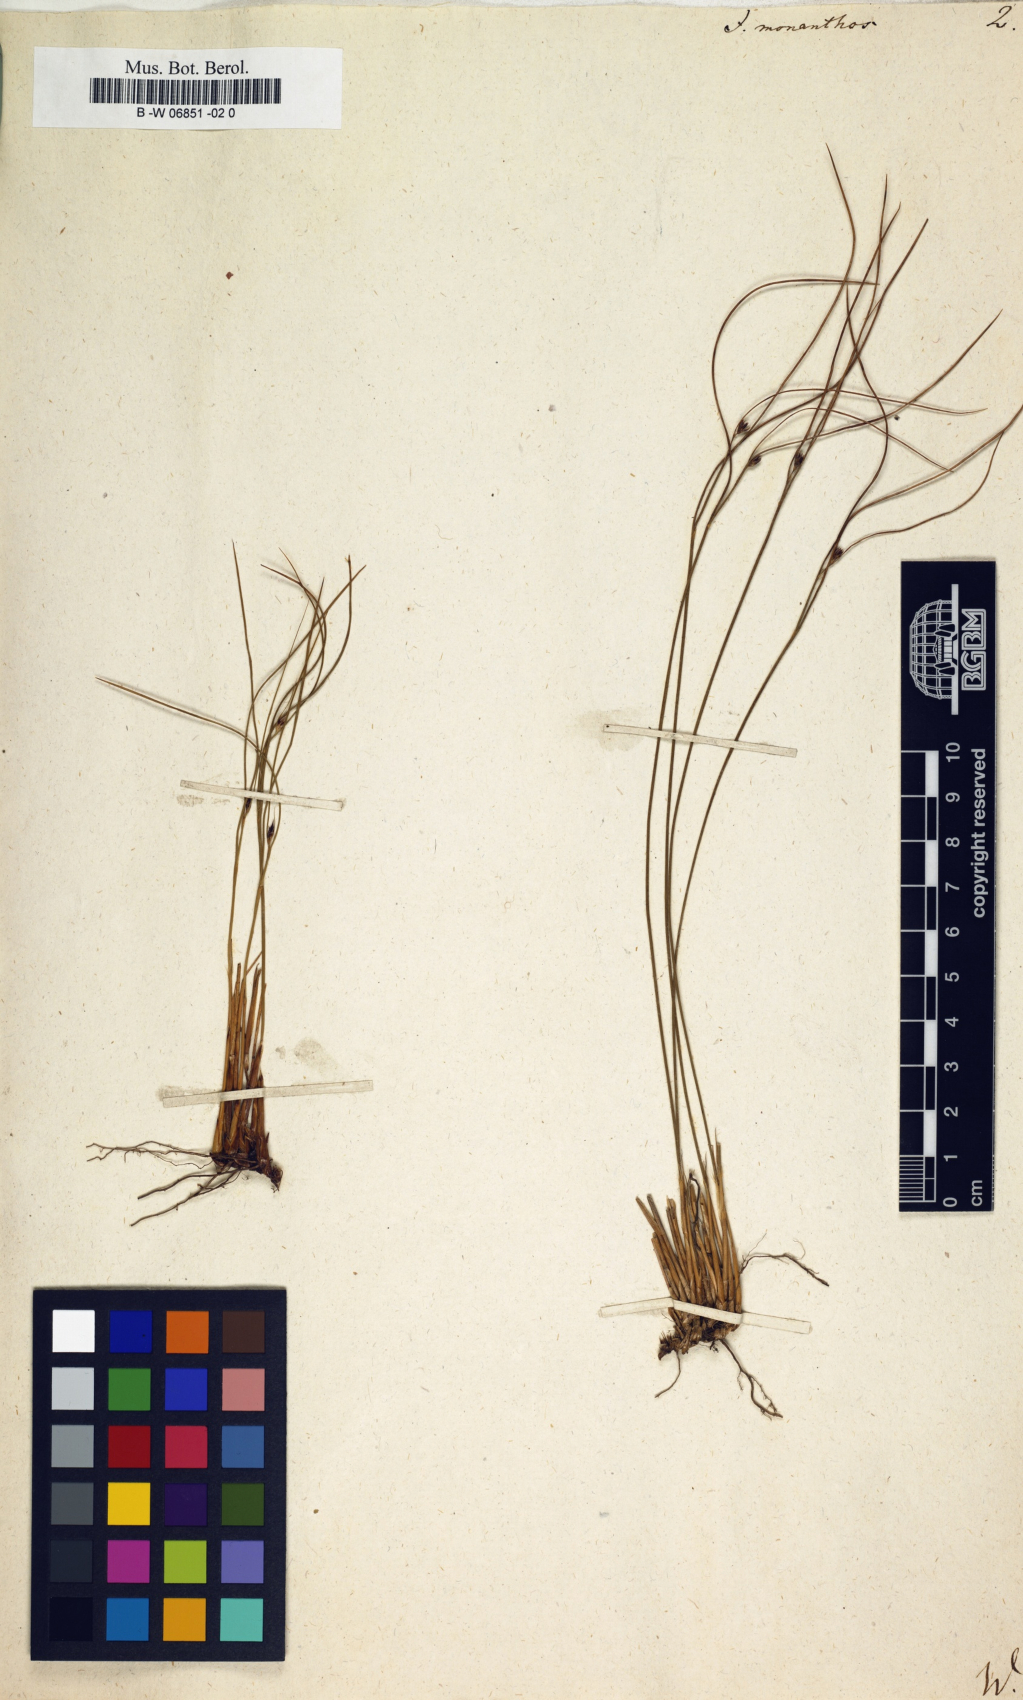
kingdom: Plantae
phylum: Tracheophyta
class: Liliopsida
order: Poales
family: Juncaceae
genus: Oreojuncus
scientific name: Oreojuncus monanthos
